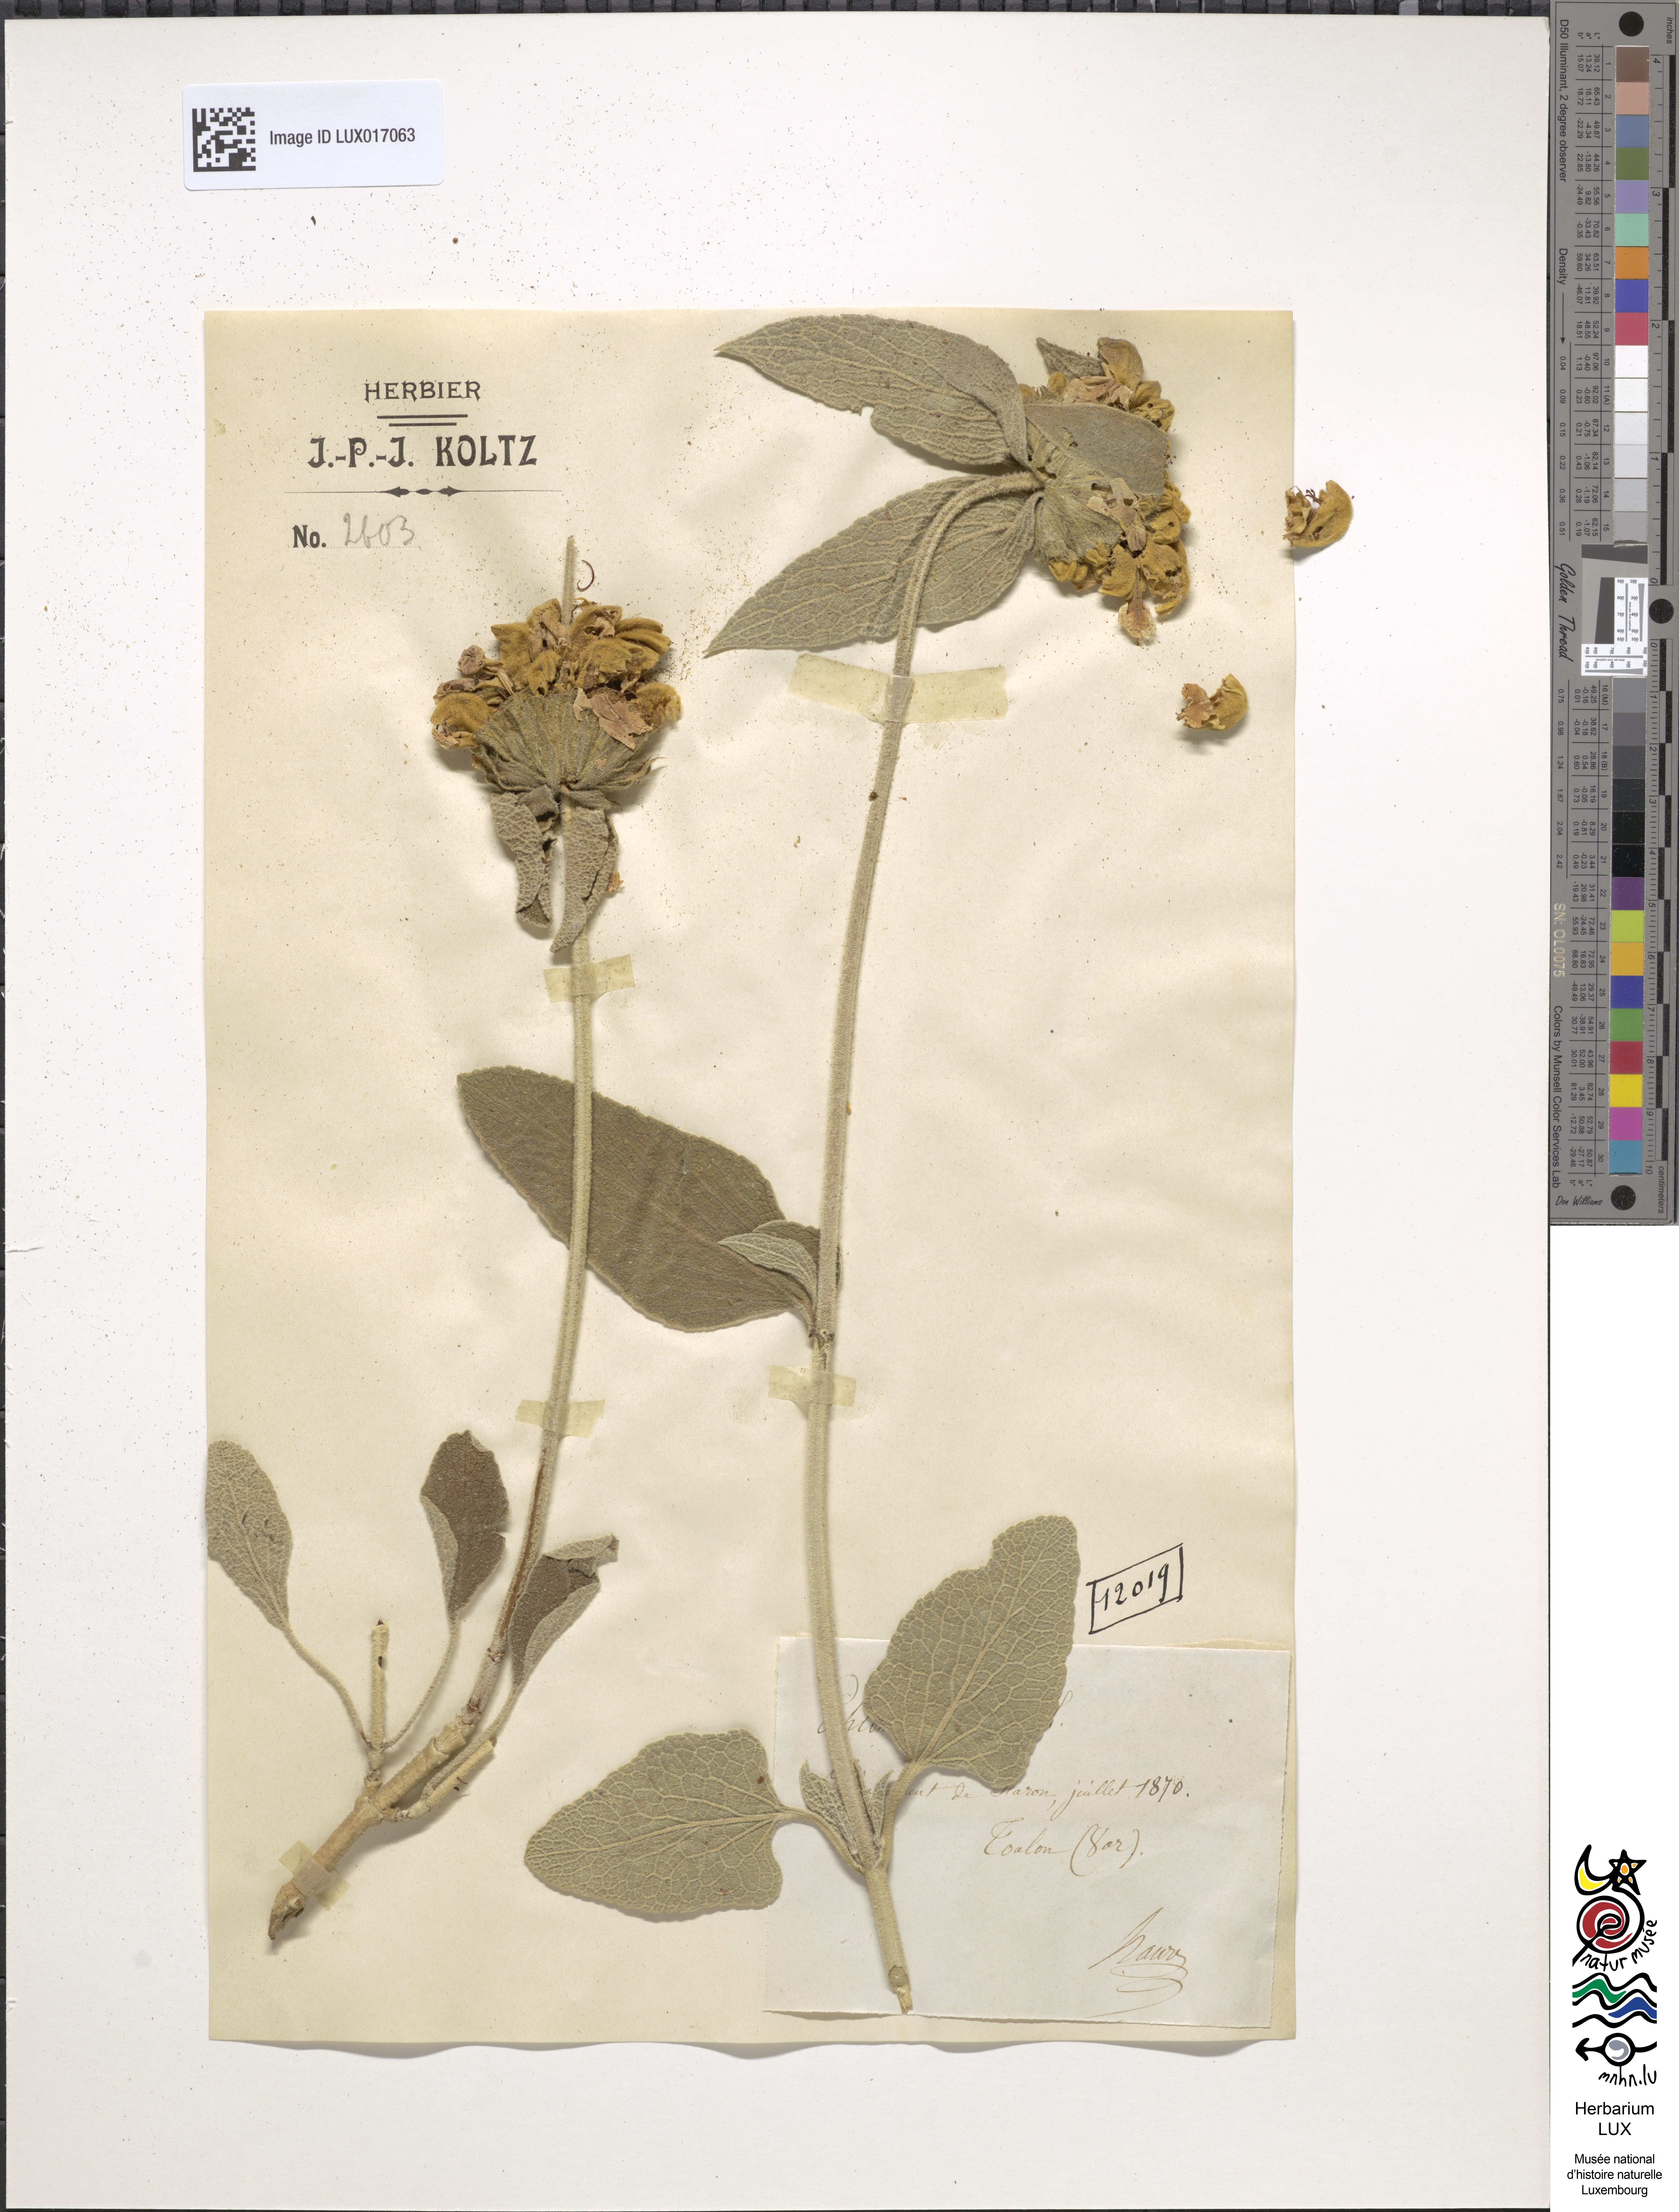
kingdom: Plantae
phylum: Tracheophyta
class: Magnoliopsida
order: Lamiales
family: Lamiaceae
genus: Phlomis
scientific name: Phlomis fruticosa
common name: Jerusalem sage
